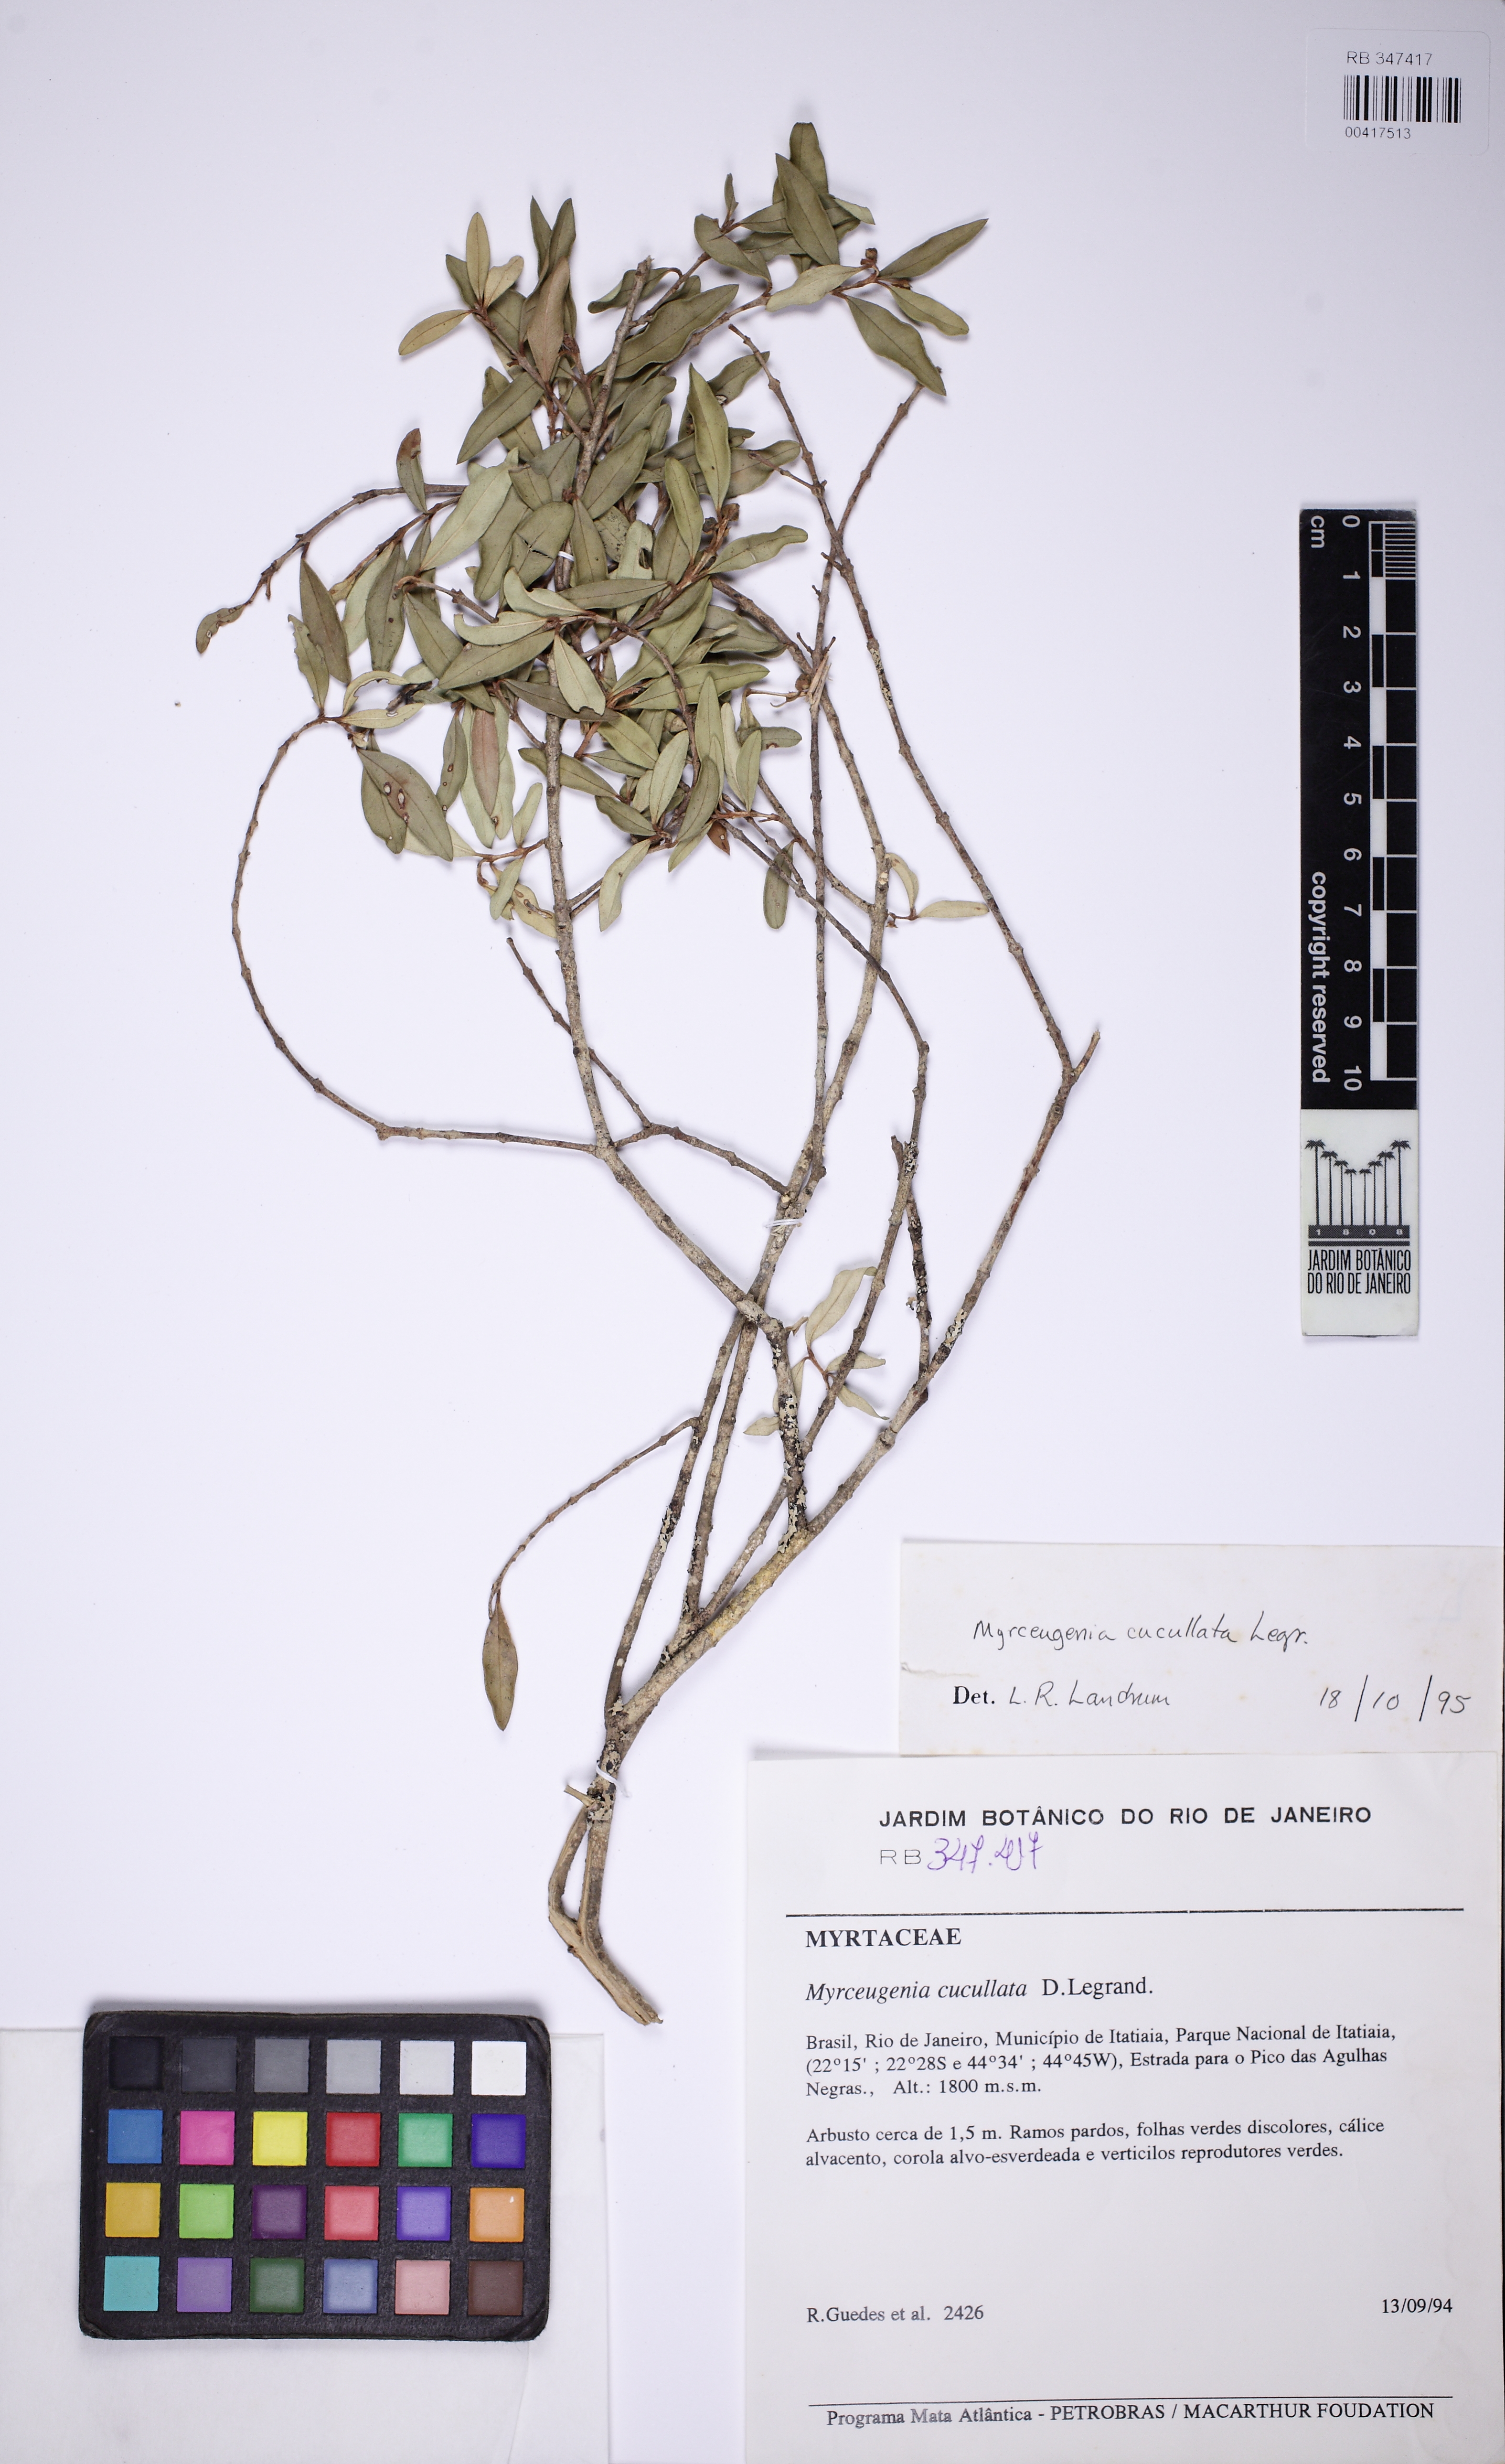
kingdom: Plantae
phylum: Tracheophyta
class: Magnoliopsida
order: Myrtales
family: Myrtaceae
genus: Myrceugenia
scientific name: Myrceugenia cucullata
